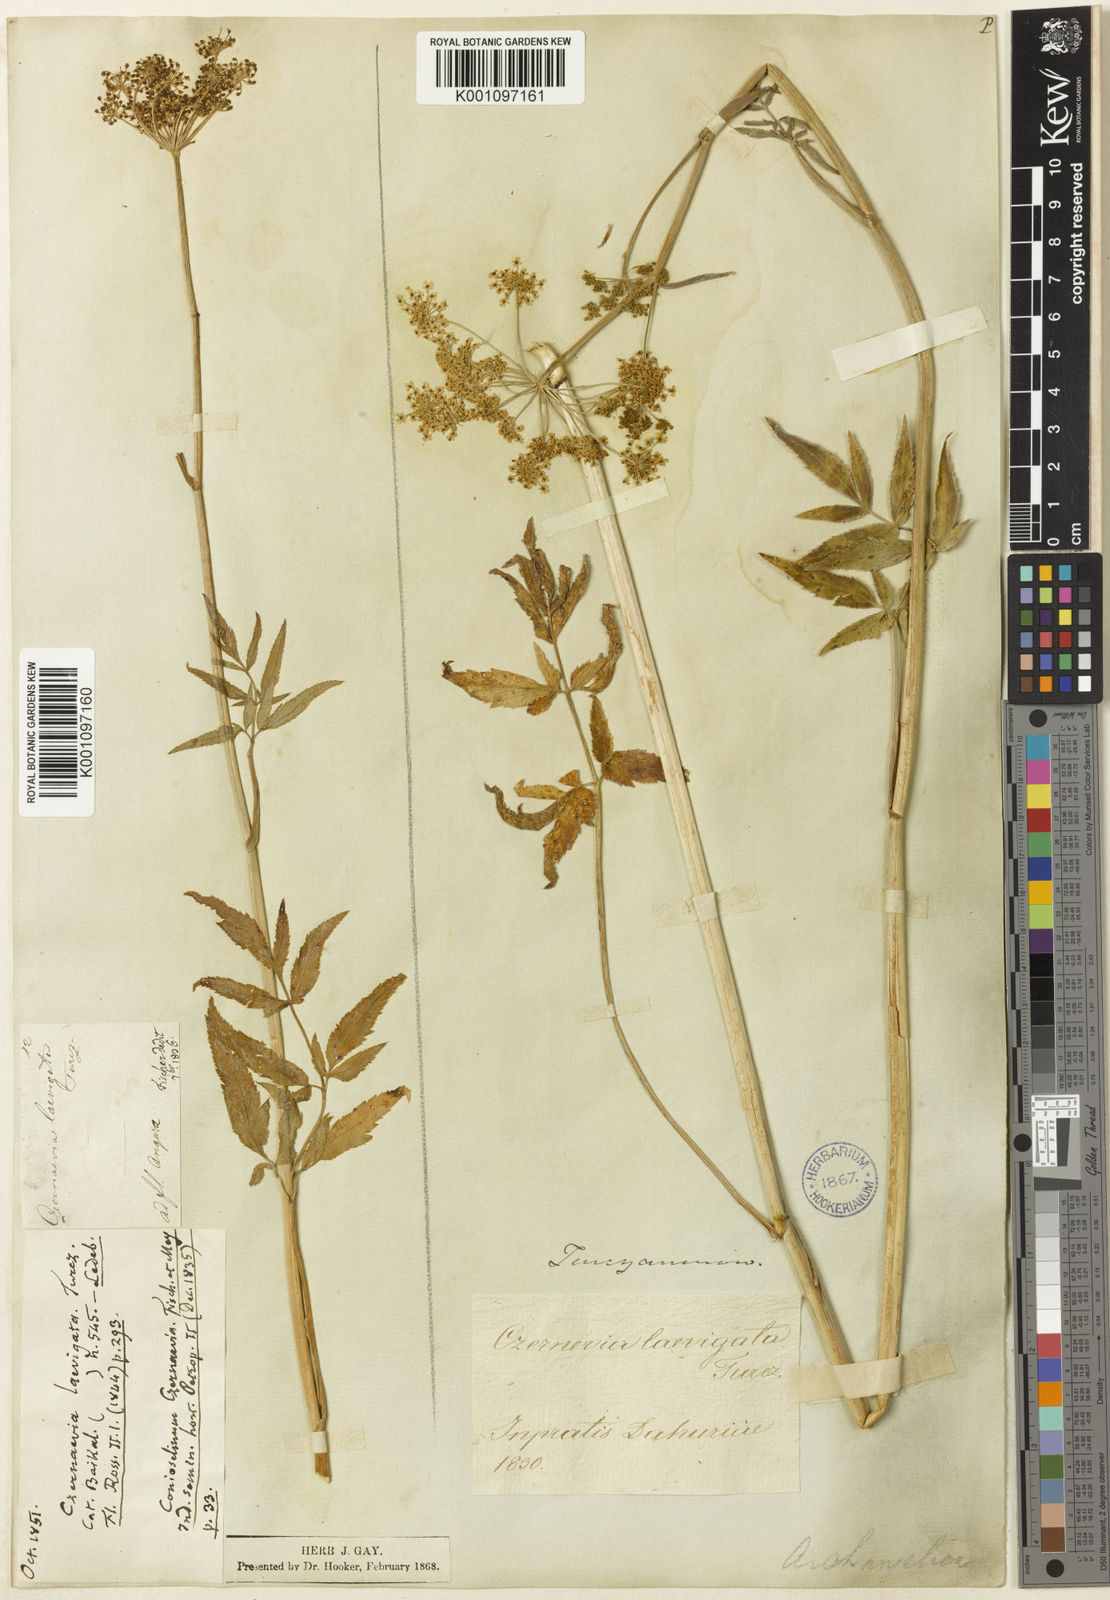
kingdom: Plantae
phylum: Tracheophyta
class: Magnoliopsida
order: Apiales
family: Apiaceae
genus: Angelica
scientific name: Angelica sylvestris
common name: Wild angelica
